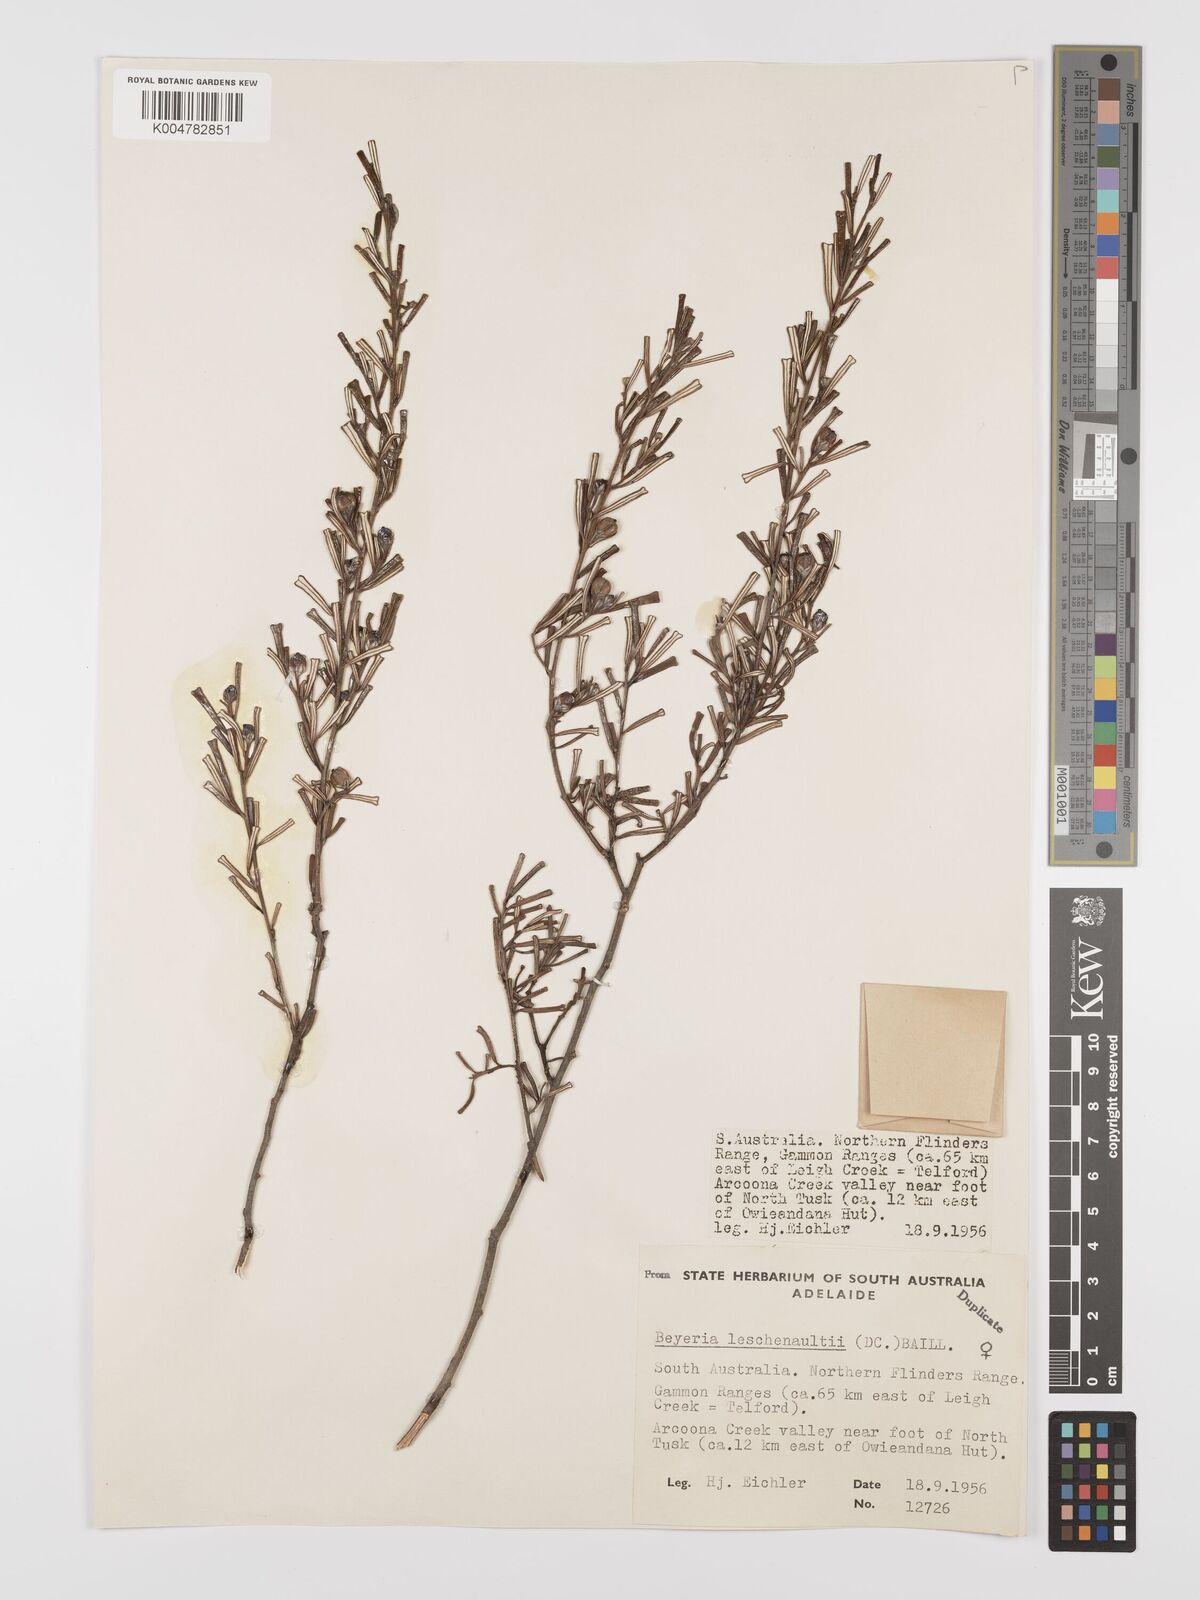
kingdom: Plantae
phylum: Tracheophyta
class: Magnoliopsida
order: Malpighiales
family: Euphorbiaceae
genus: Beyeria
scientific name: Beyeria lechenaultii
